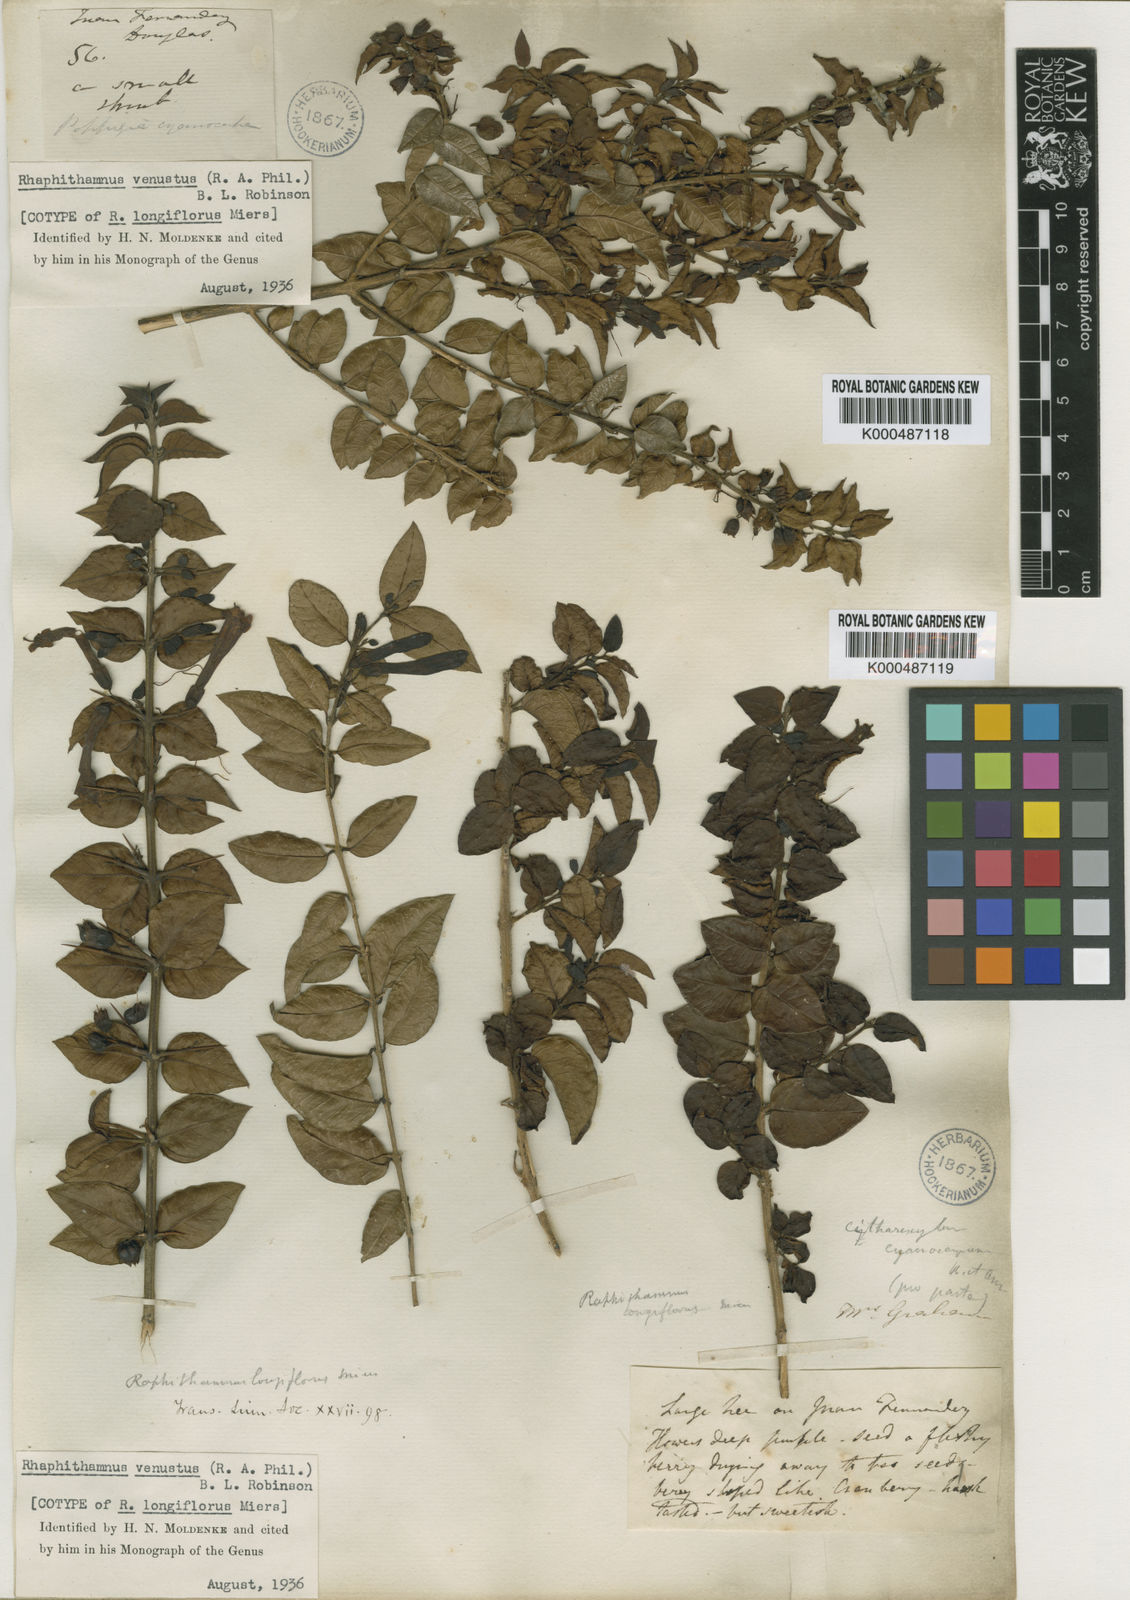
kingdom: Plantae
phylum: Tracheophyta
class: Magnoliopsida
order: Lamiales
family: Verbenaceae
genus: Rhaphithamnus
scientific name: Rhaphithamnus venustus
